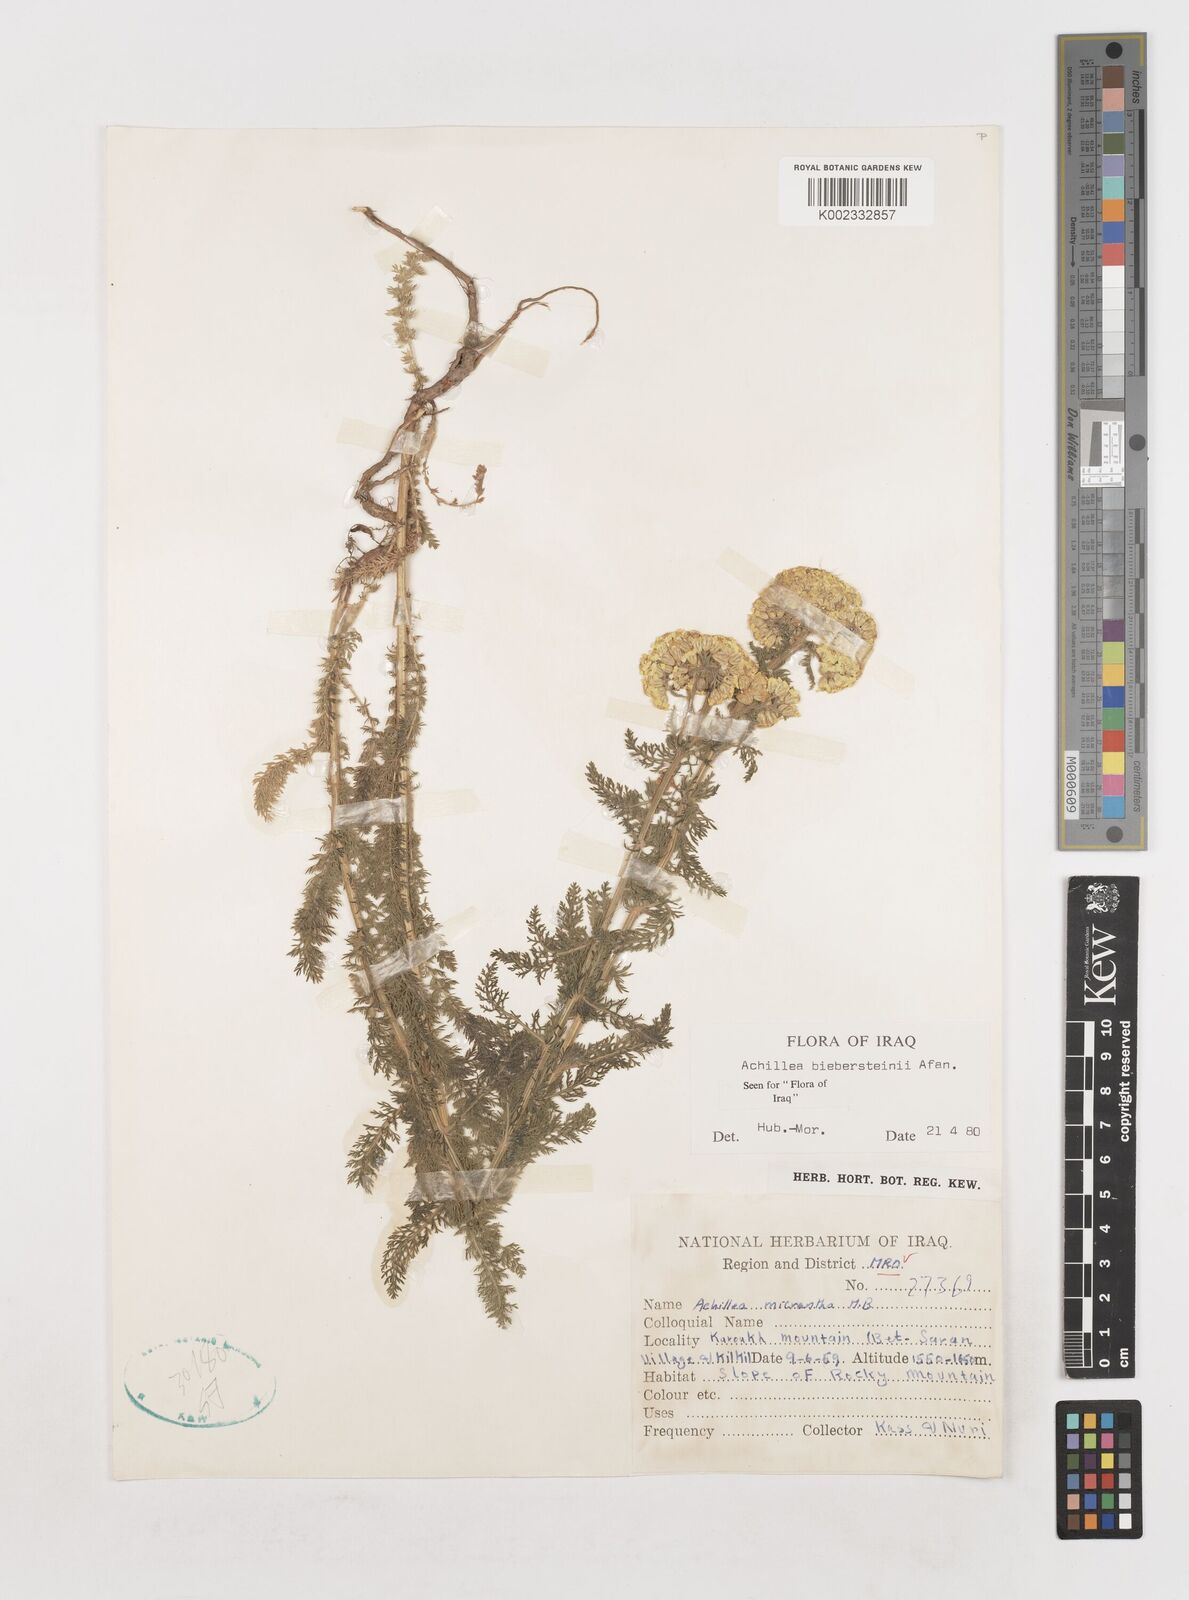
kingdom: Plantae
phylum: Tracheophyta
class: Magnoliopsida
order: Asterales
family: Asteraceae
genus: Achillea
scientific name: Achillea arabica
